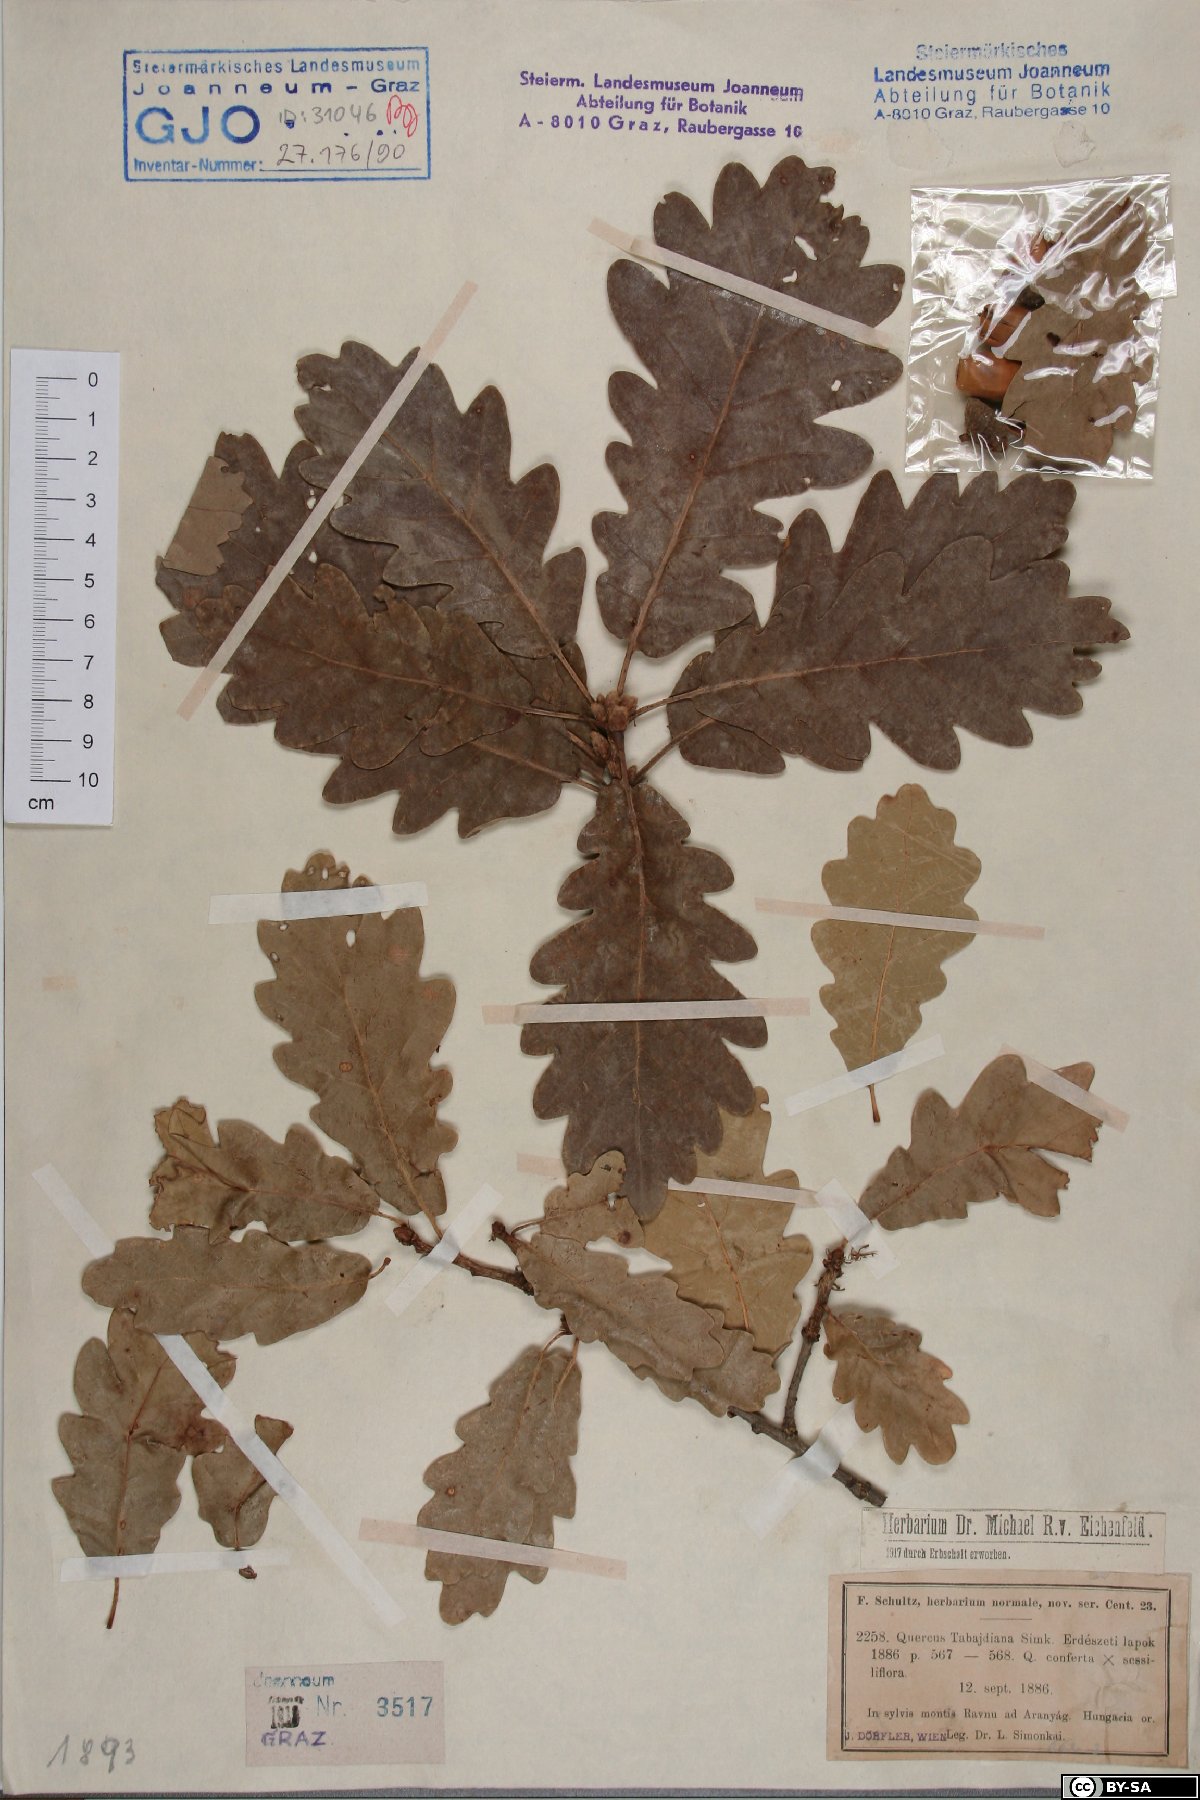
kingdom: Plantae
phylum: Tracheophyta
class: Magnoliopsida
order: Fagales
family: Fagaceae
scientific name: Fagaceae
